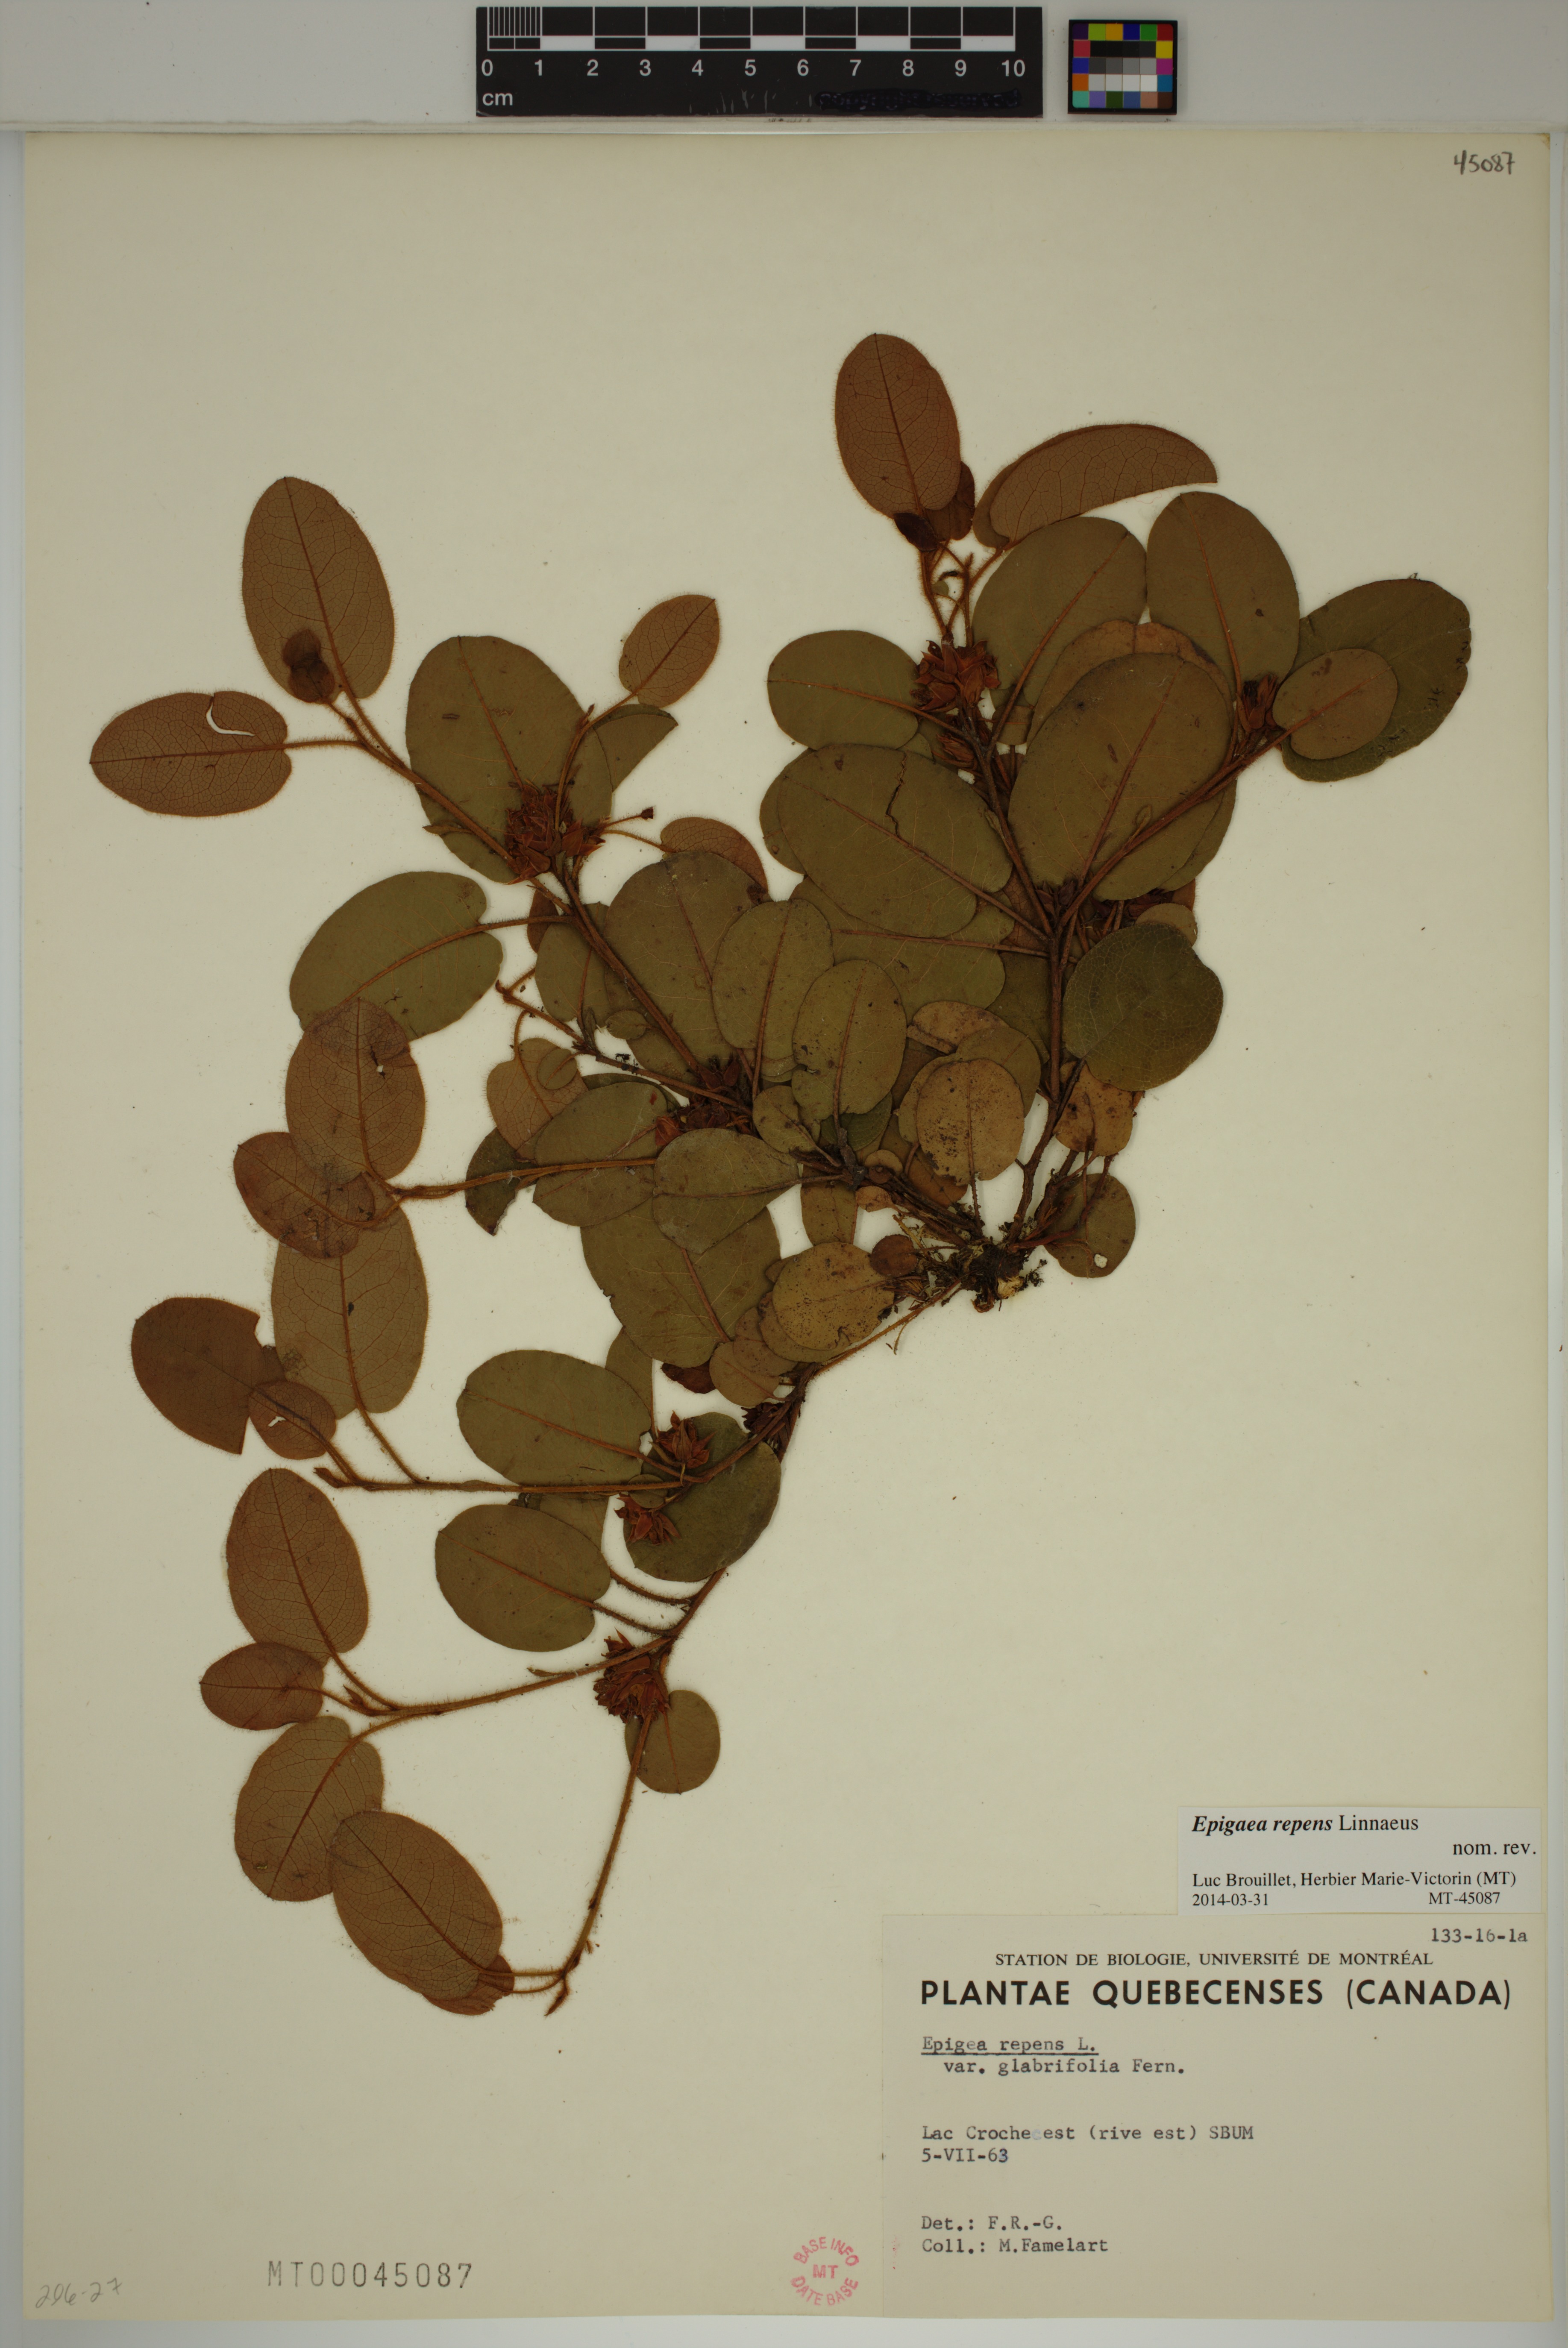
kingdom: Plantae
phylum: Tracheophyta
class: Magnoliopsida
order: Ericales
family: Ericaceae
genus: Epigaea
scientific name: Epigaea repens
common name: Gravelroot
